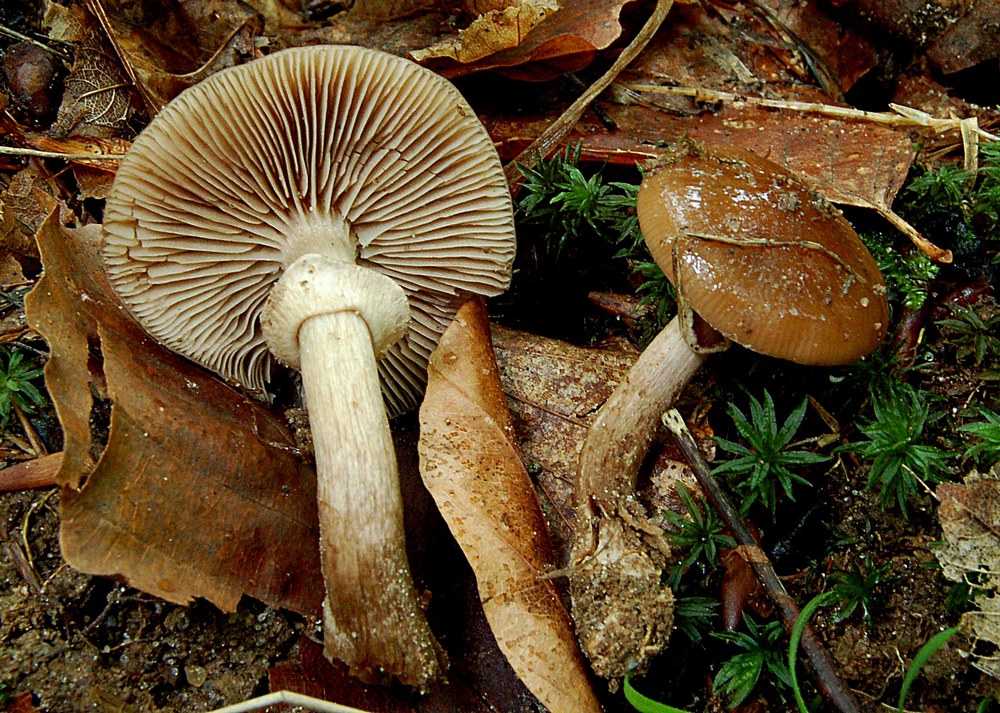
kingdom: Fungi
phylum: Basidiomycota
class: Agaricomycetes
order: Agaricales
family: Tubariaceae
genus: Cyclocybe
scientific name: Cyclocybe erebia
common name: mørk agerhat
